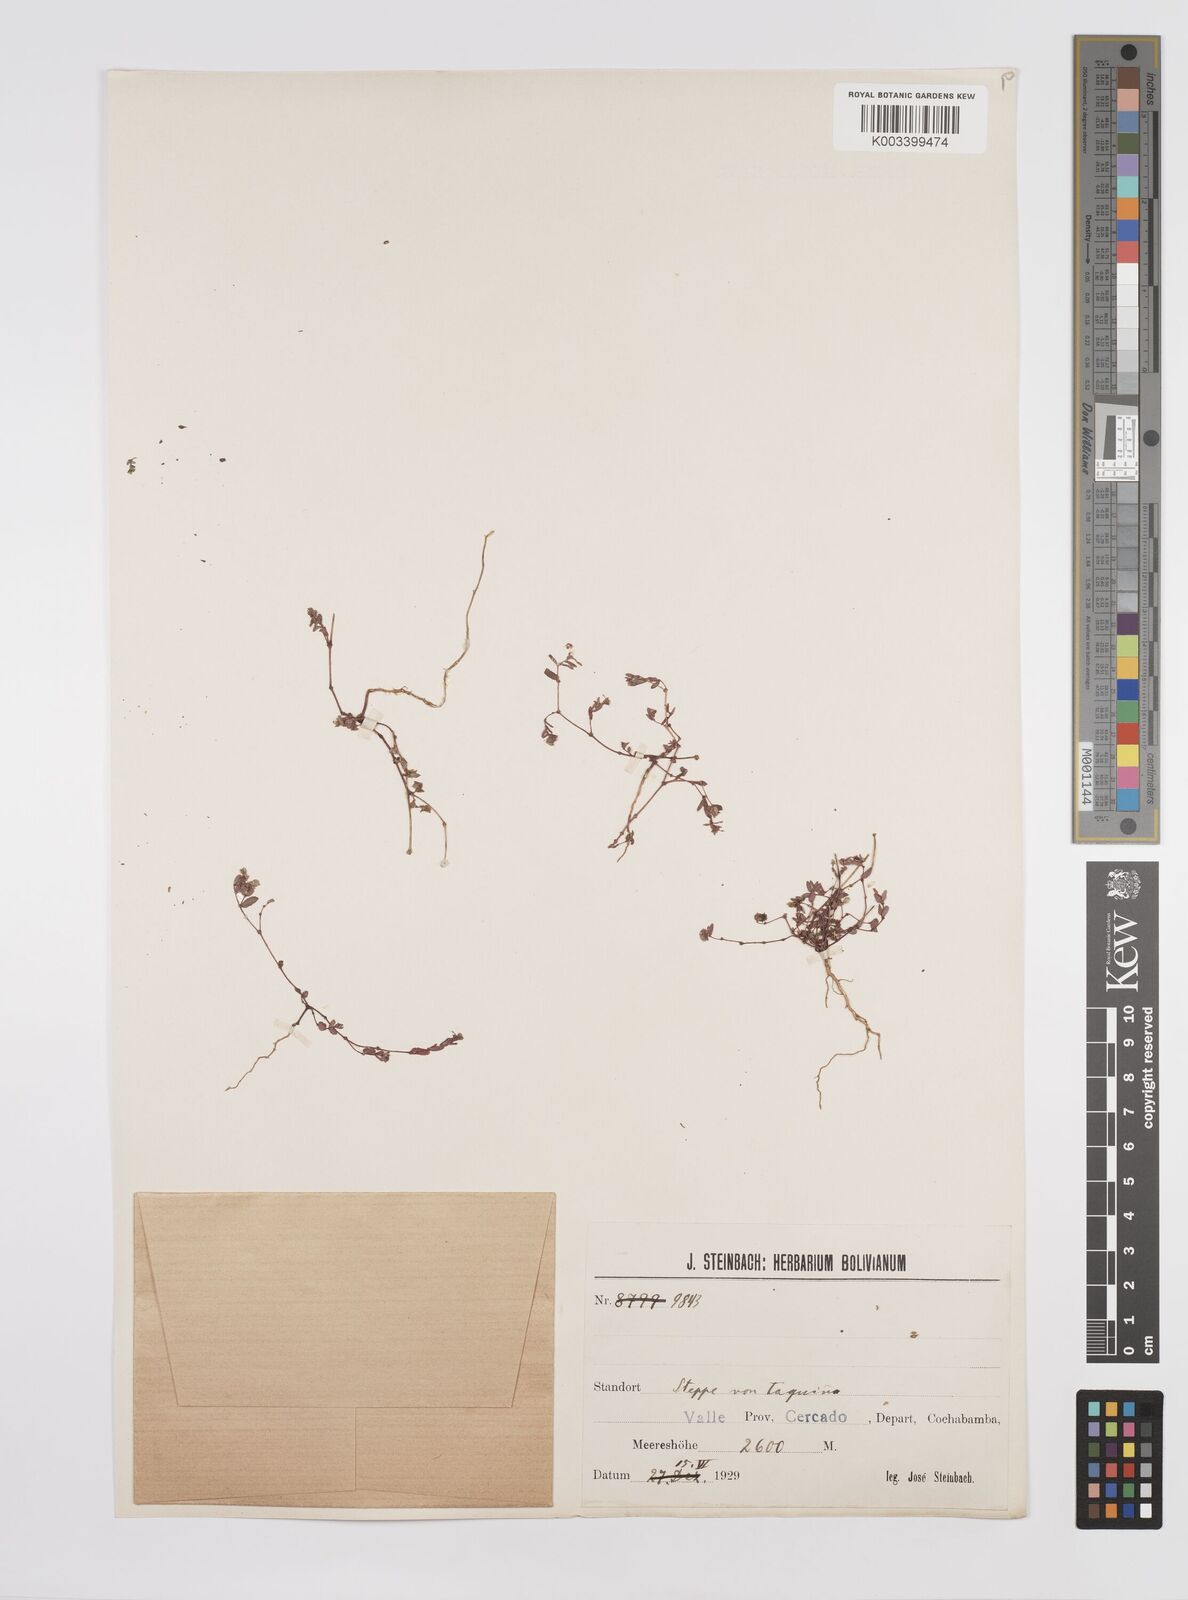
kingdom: Plantae
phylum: Tracheophyta
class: Magnoliopsida
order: Malpighiales
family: Euphorbiaceae
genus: Euphorbia
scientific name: Euphorbia
